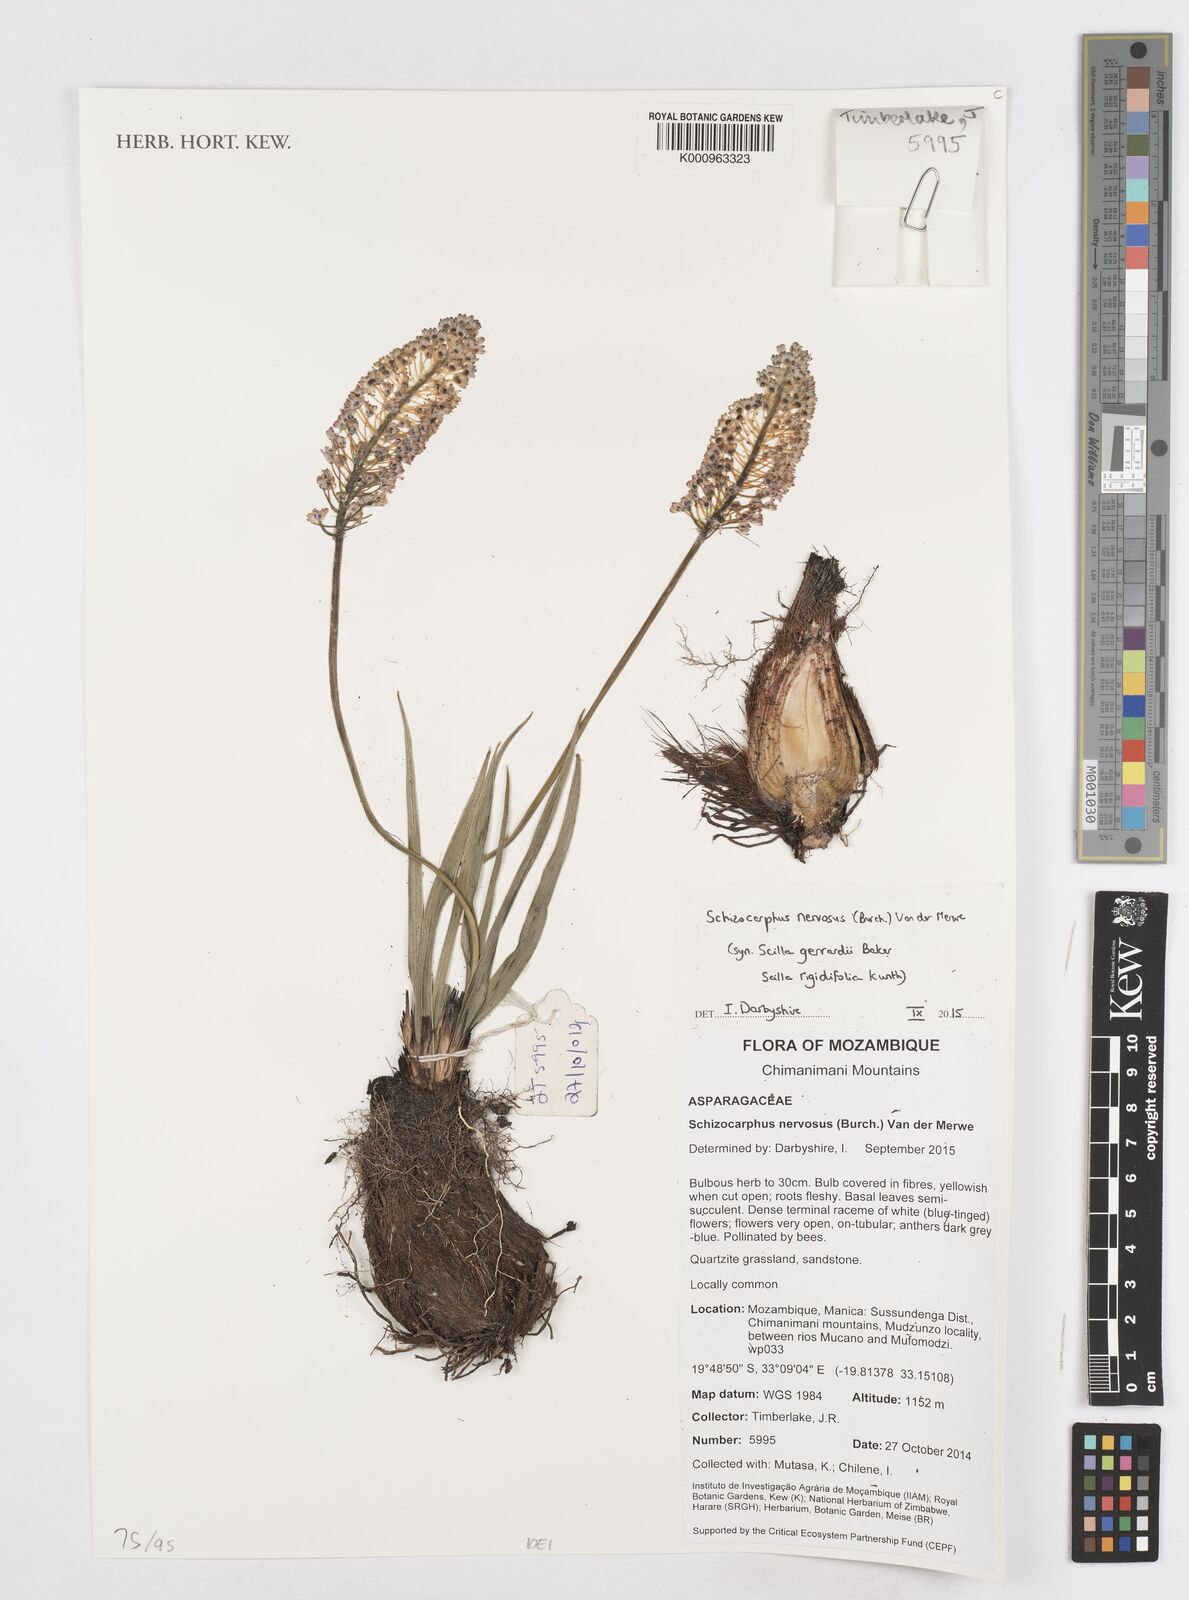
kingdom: Plantae
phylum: Tracheophyta
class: Liliopsida
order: Asparagales
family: Asparagaceae
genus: Schizocarphus
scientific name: Schizocarphus nervosus
